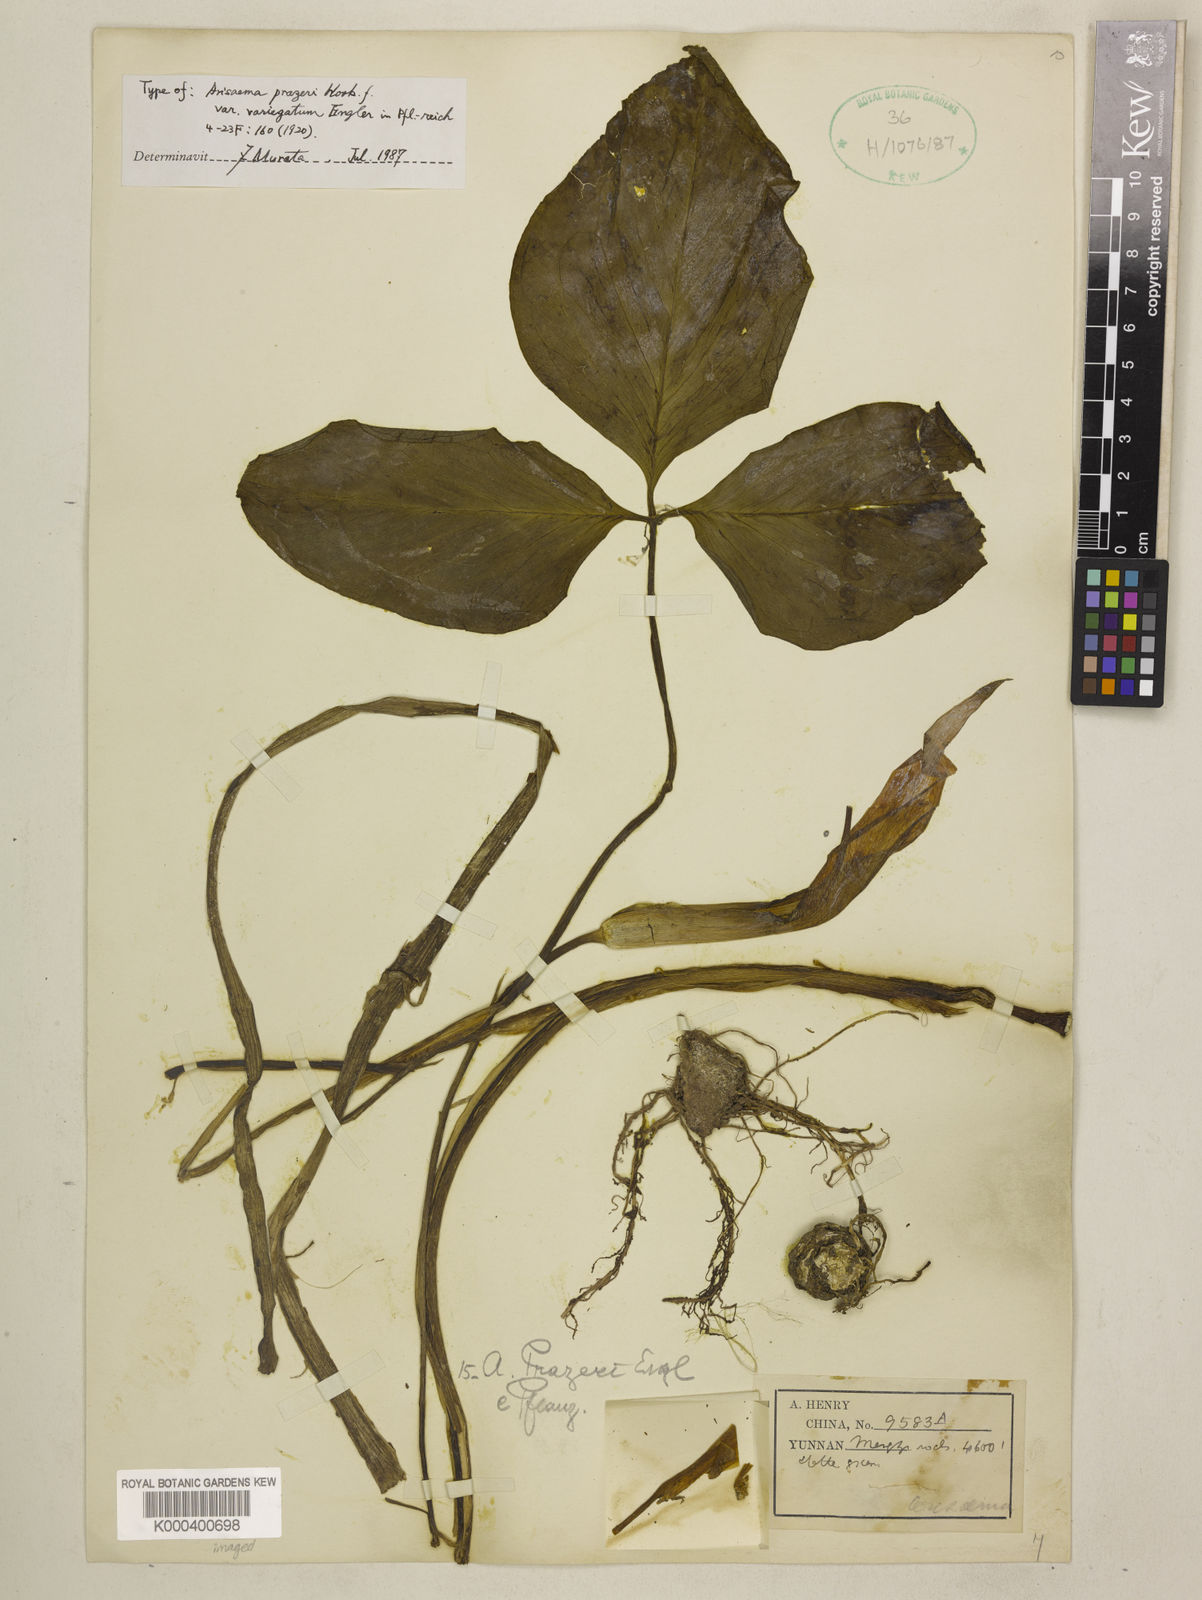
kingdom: Plantae
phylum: Tracheophyta
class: Liliopsida
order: Alismatales
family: Araceae
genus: Arisaema
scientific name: Arisaema prazeri
